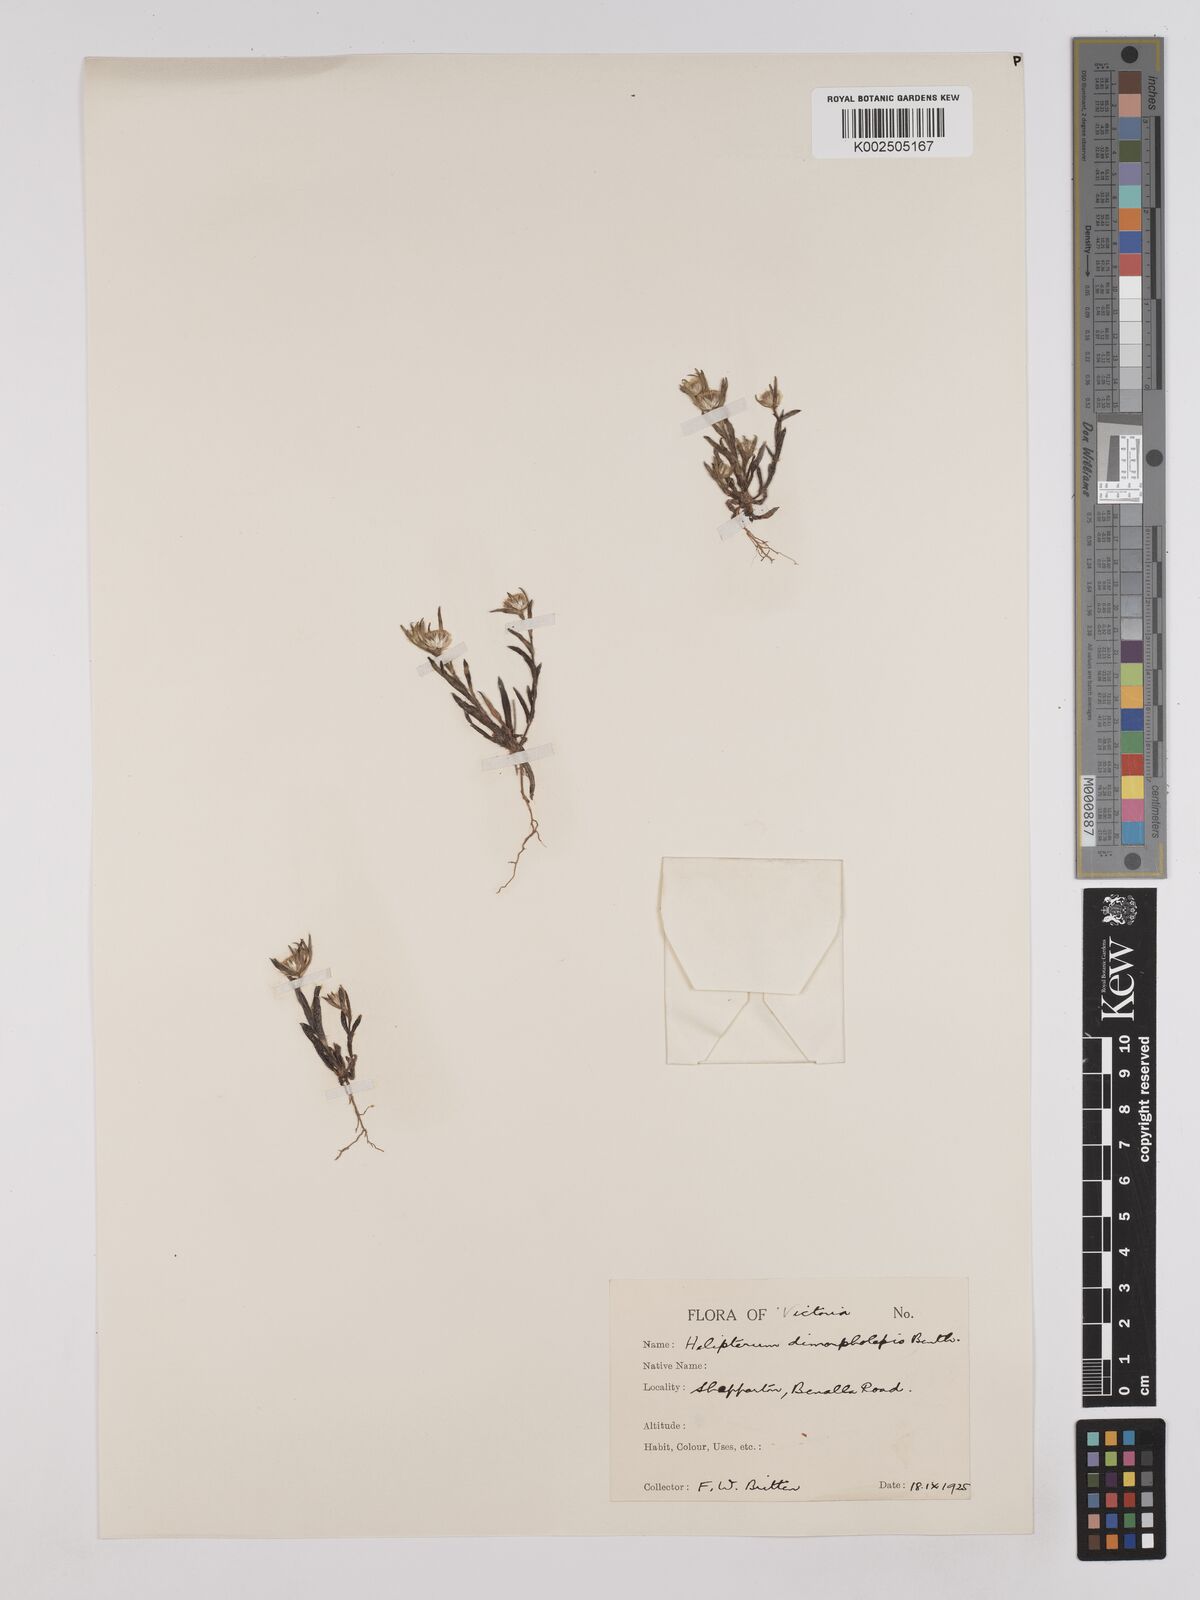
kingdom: Plantae
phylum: Tracheophyta
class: Magnoliopsida
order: Asterales
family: Asteraceae
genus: Triptilodiscus
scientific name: Triptilodiscus pygmaeus
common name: Common sunray
